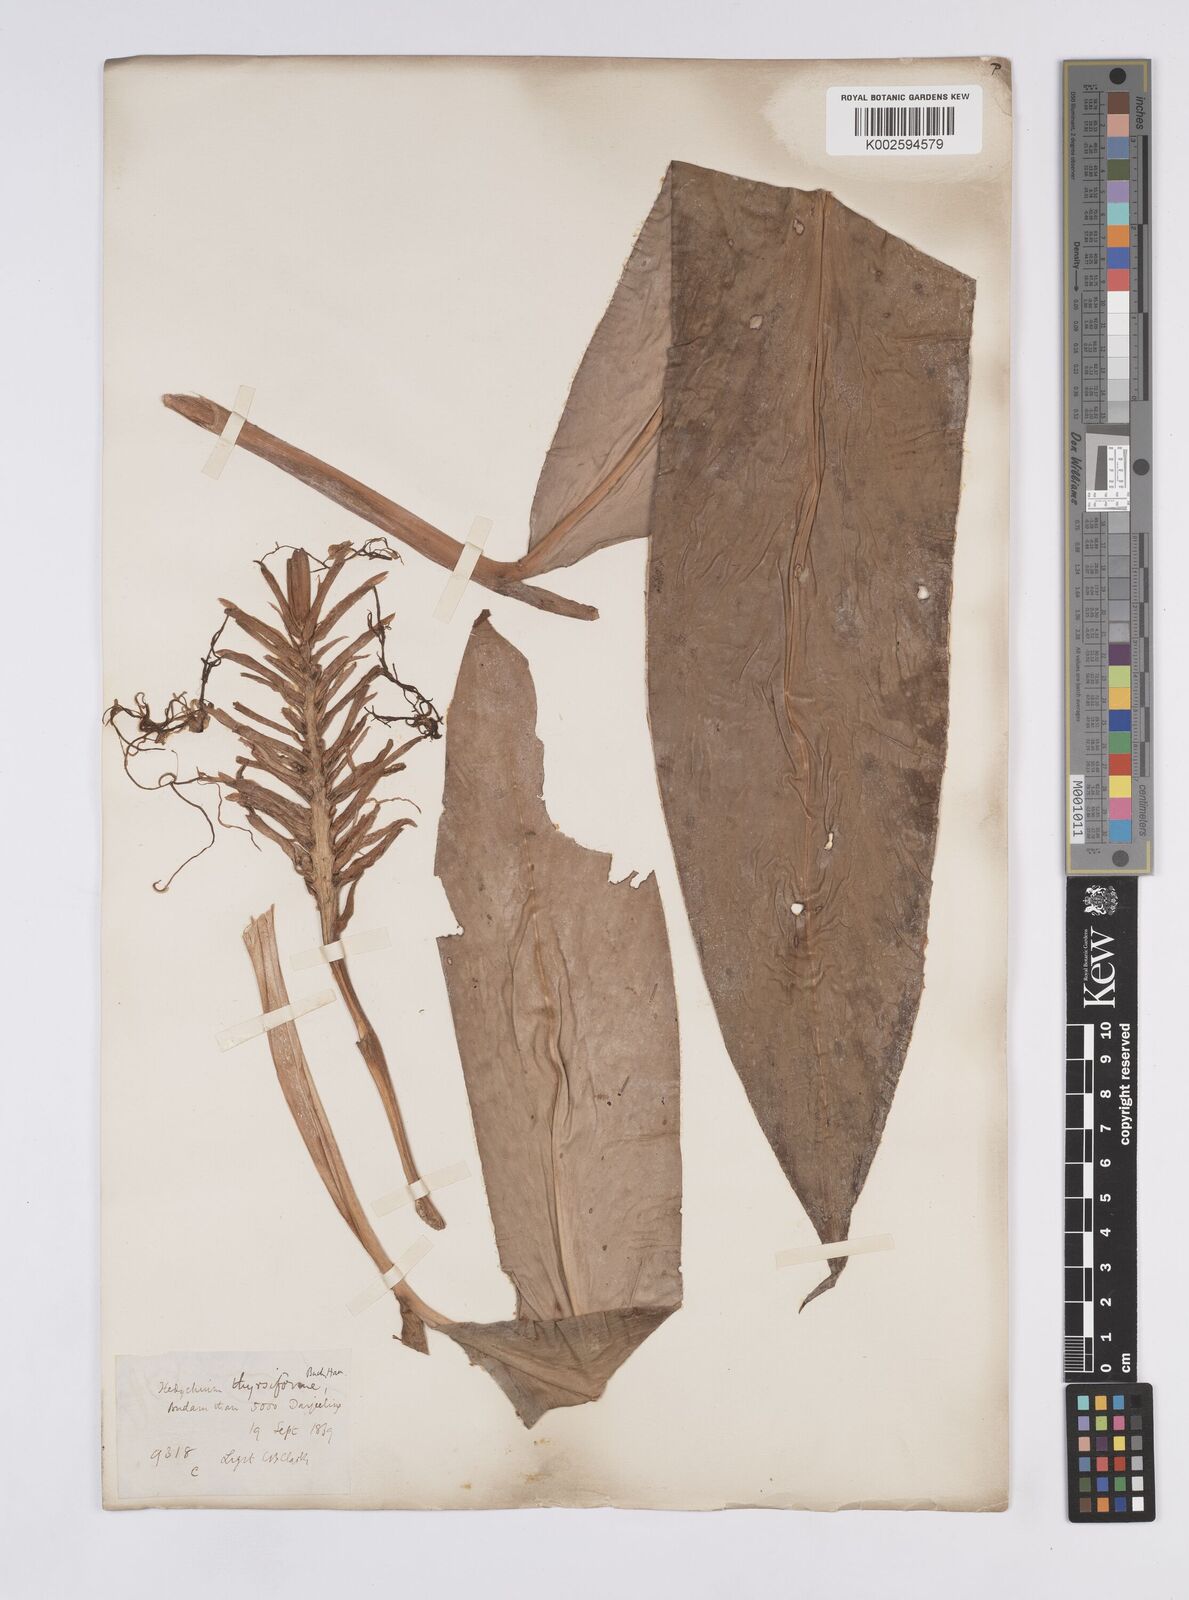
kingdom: Plantae
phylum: Tracheophyta
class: Liliopsida
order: Zingiberales
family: Zingiberaceae
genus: Hedychium
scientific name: Hedychium
